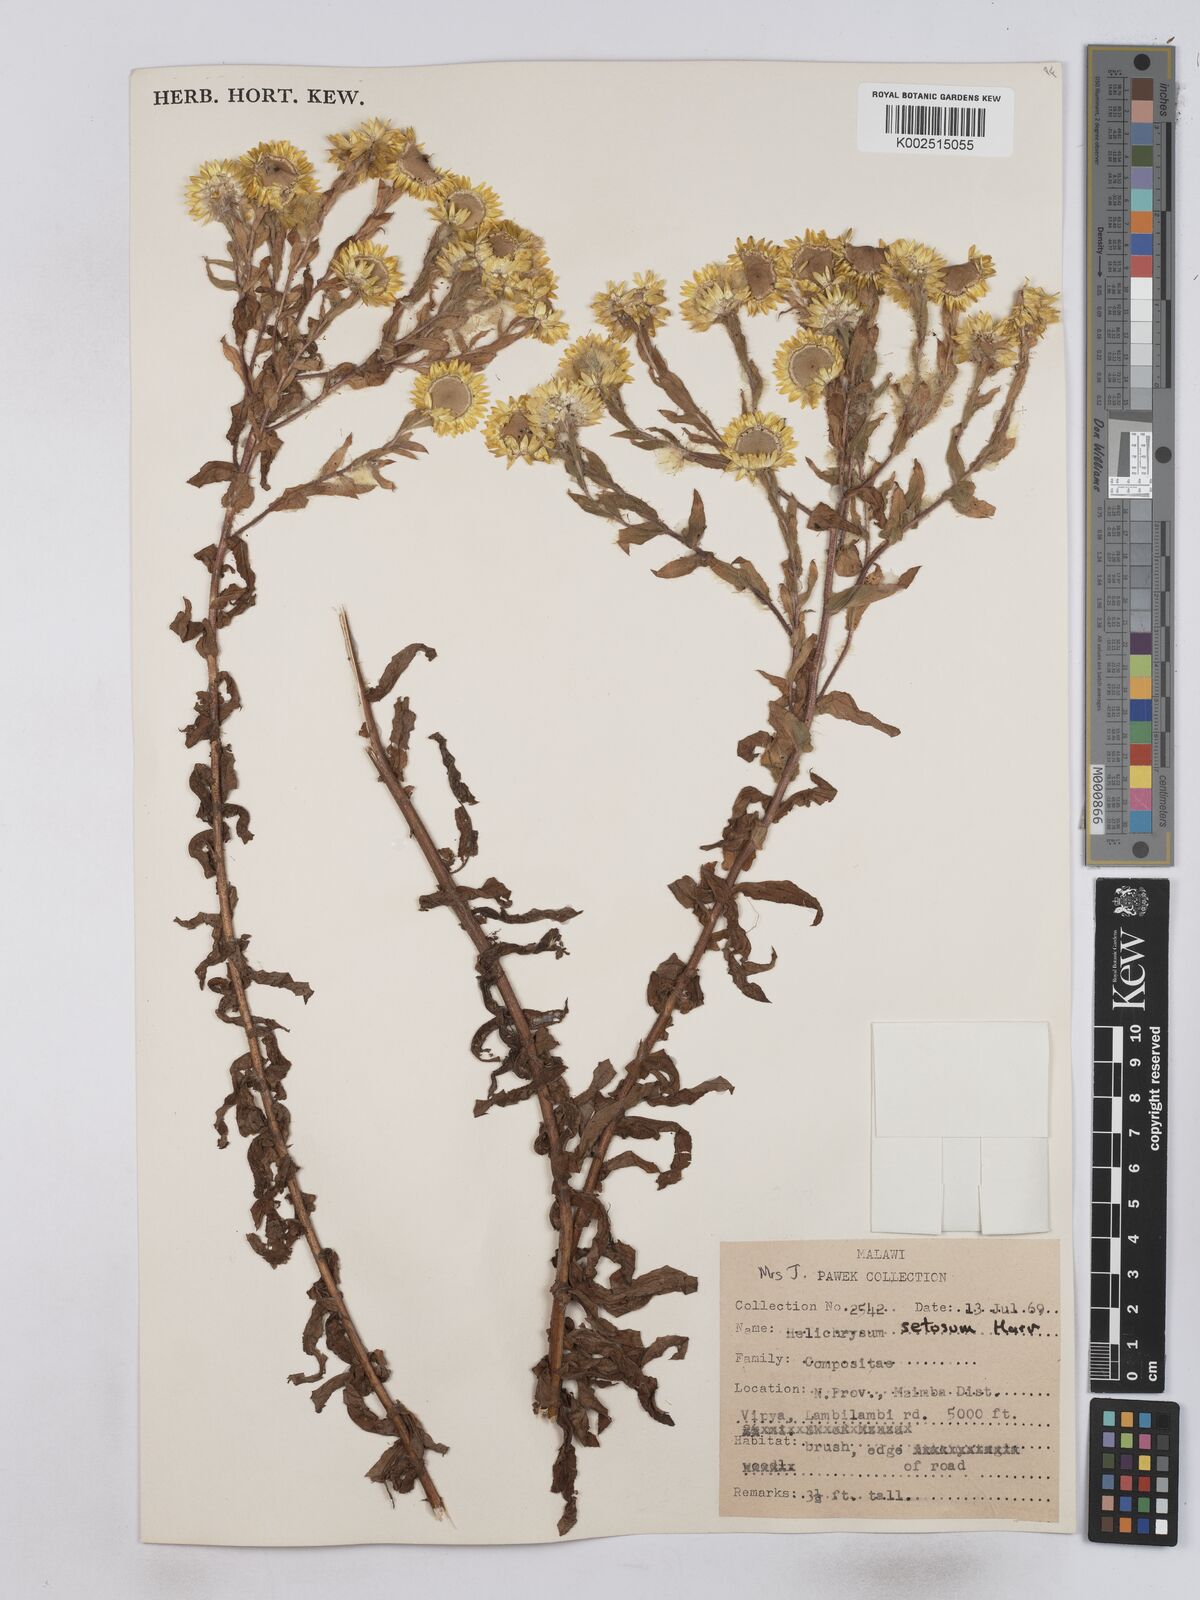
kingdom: Plantae
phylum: Tracheophyta
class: Magnoliopsida
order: Asterales
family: Asteraceae
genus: Helichrysum
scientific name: Helichrysum setosum
